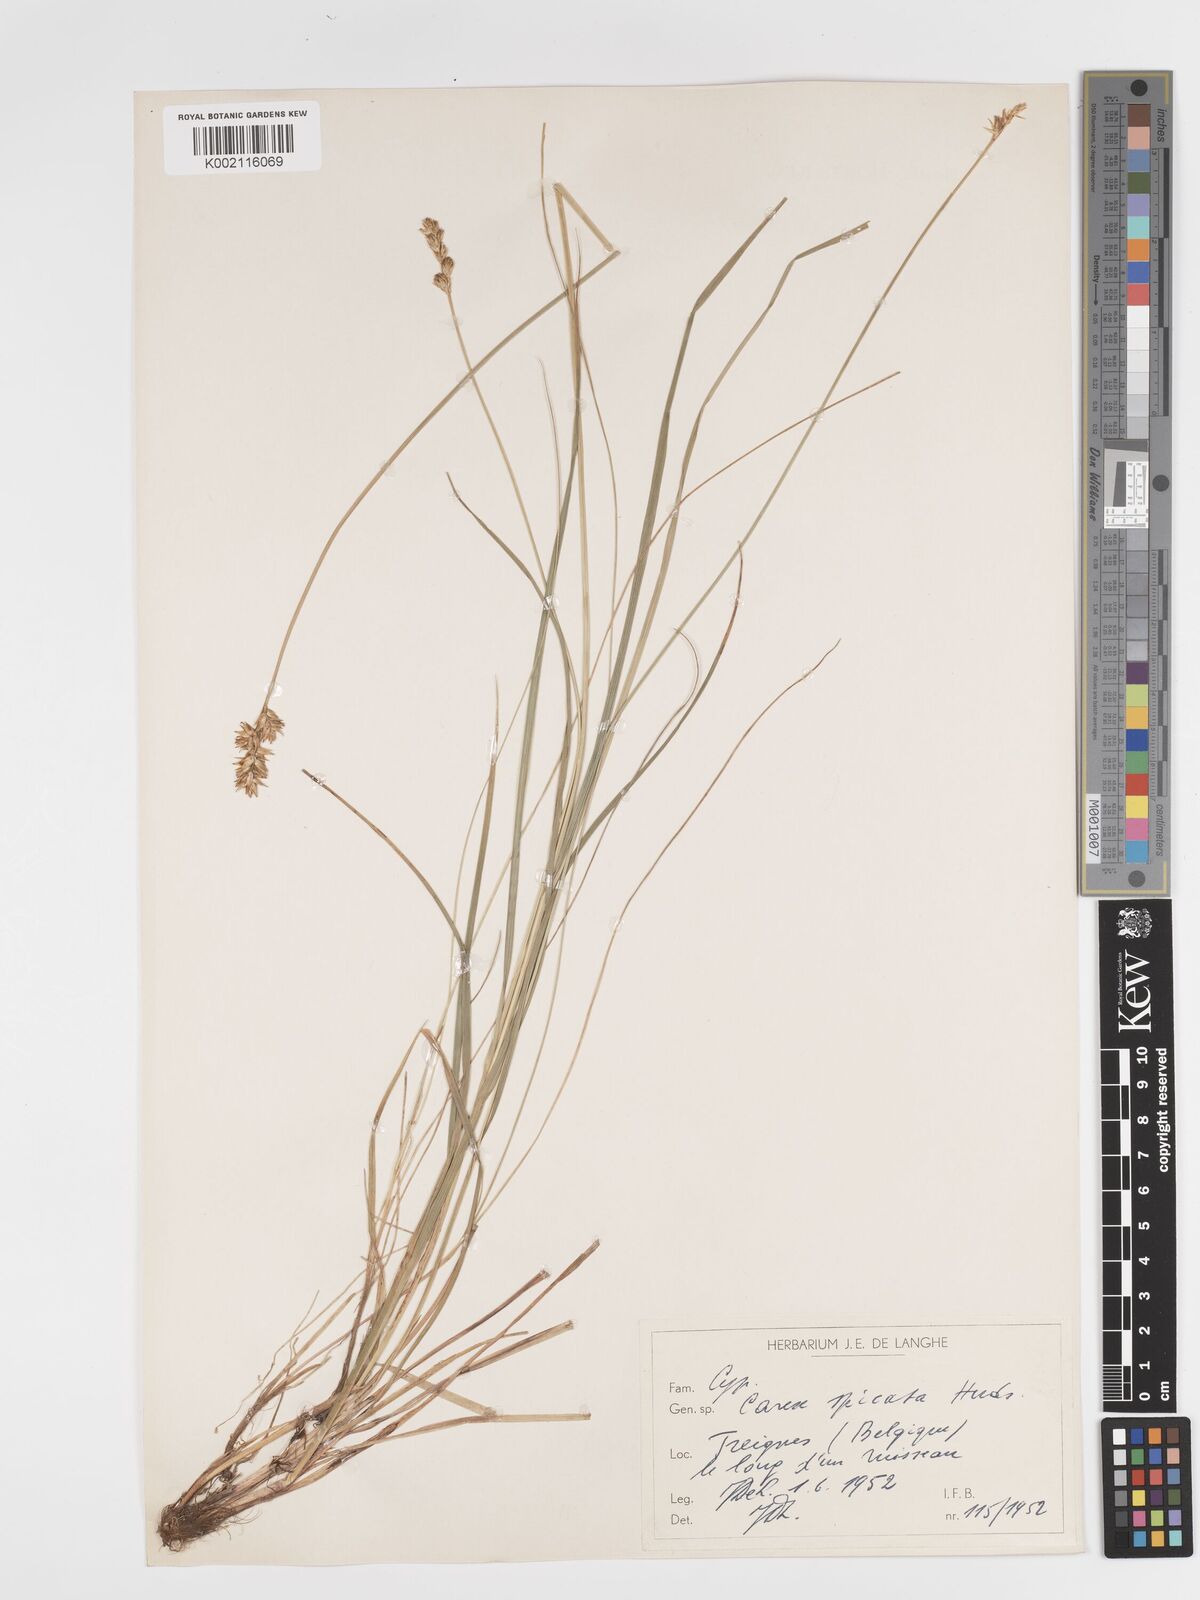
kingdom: Plantae
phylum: Tracheophyta
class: Liliopsida
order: Poales
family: Cyperaceae
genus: Carex
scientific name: Carex spicata
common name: Spiked sedge
